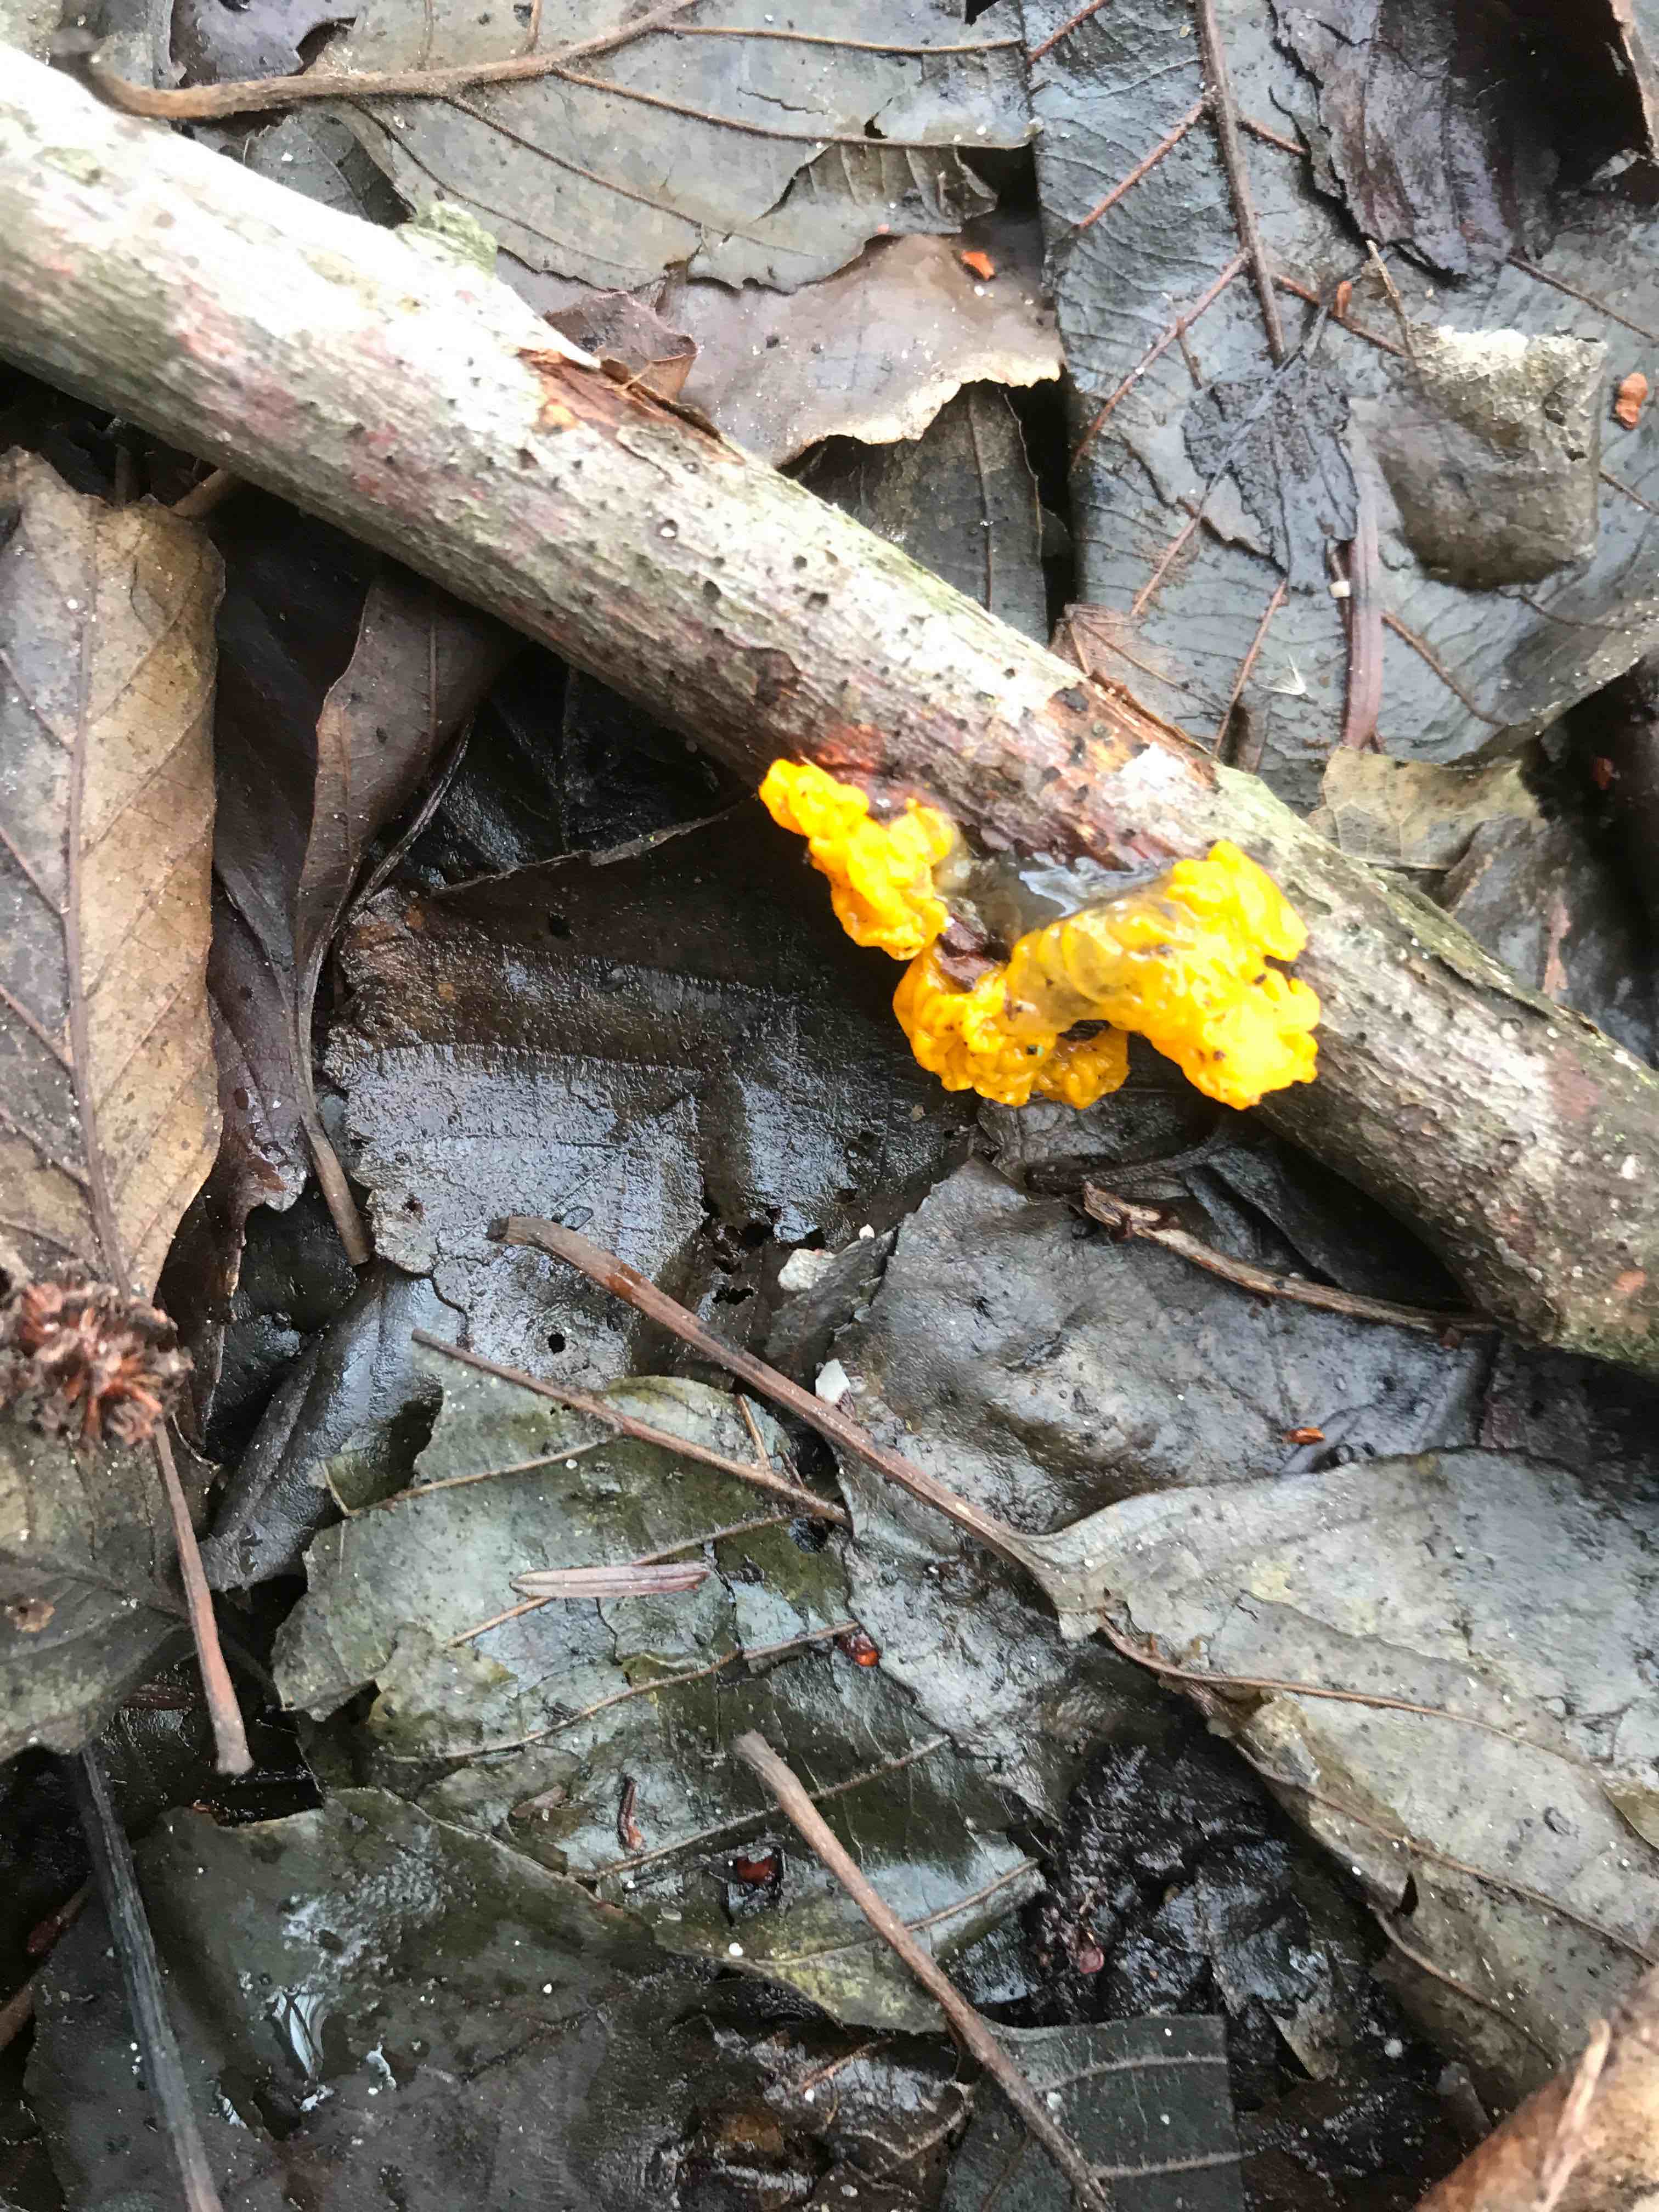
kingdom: Fungi
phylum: Basidiomycota
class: Tremellomycetes
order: Tremellales
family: Tremellaceae
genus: Tremella
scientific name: Tremella mesenterica
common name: gul bævresvamp
